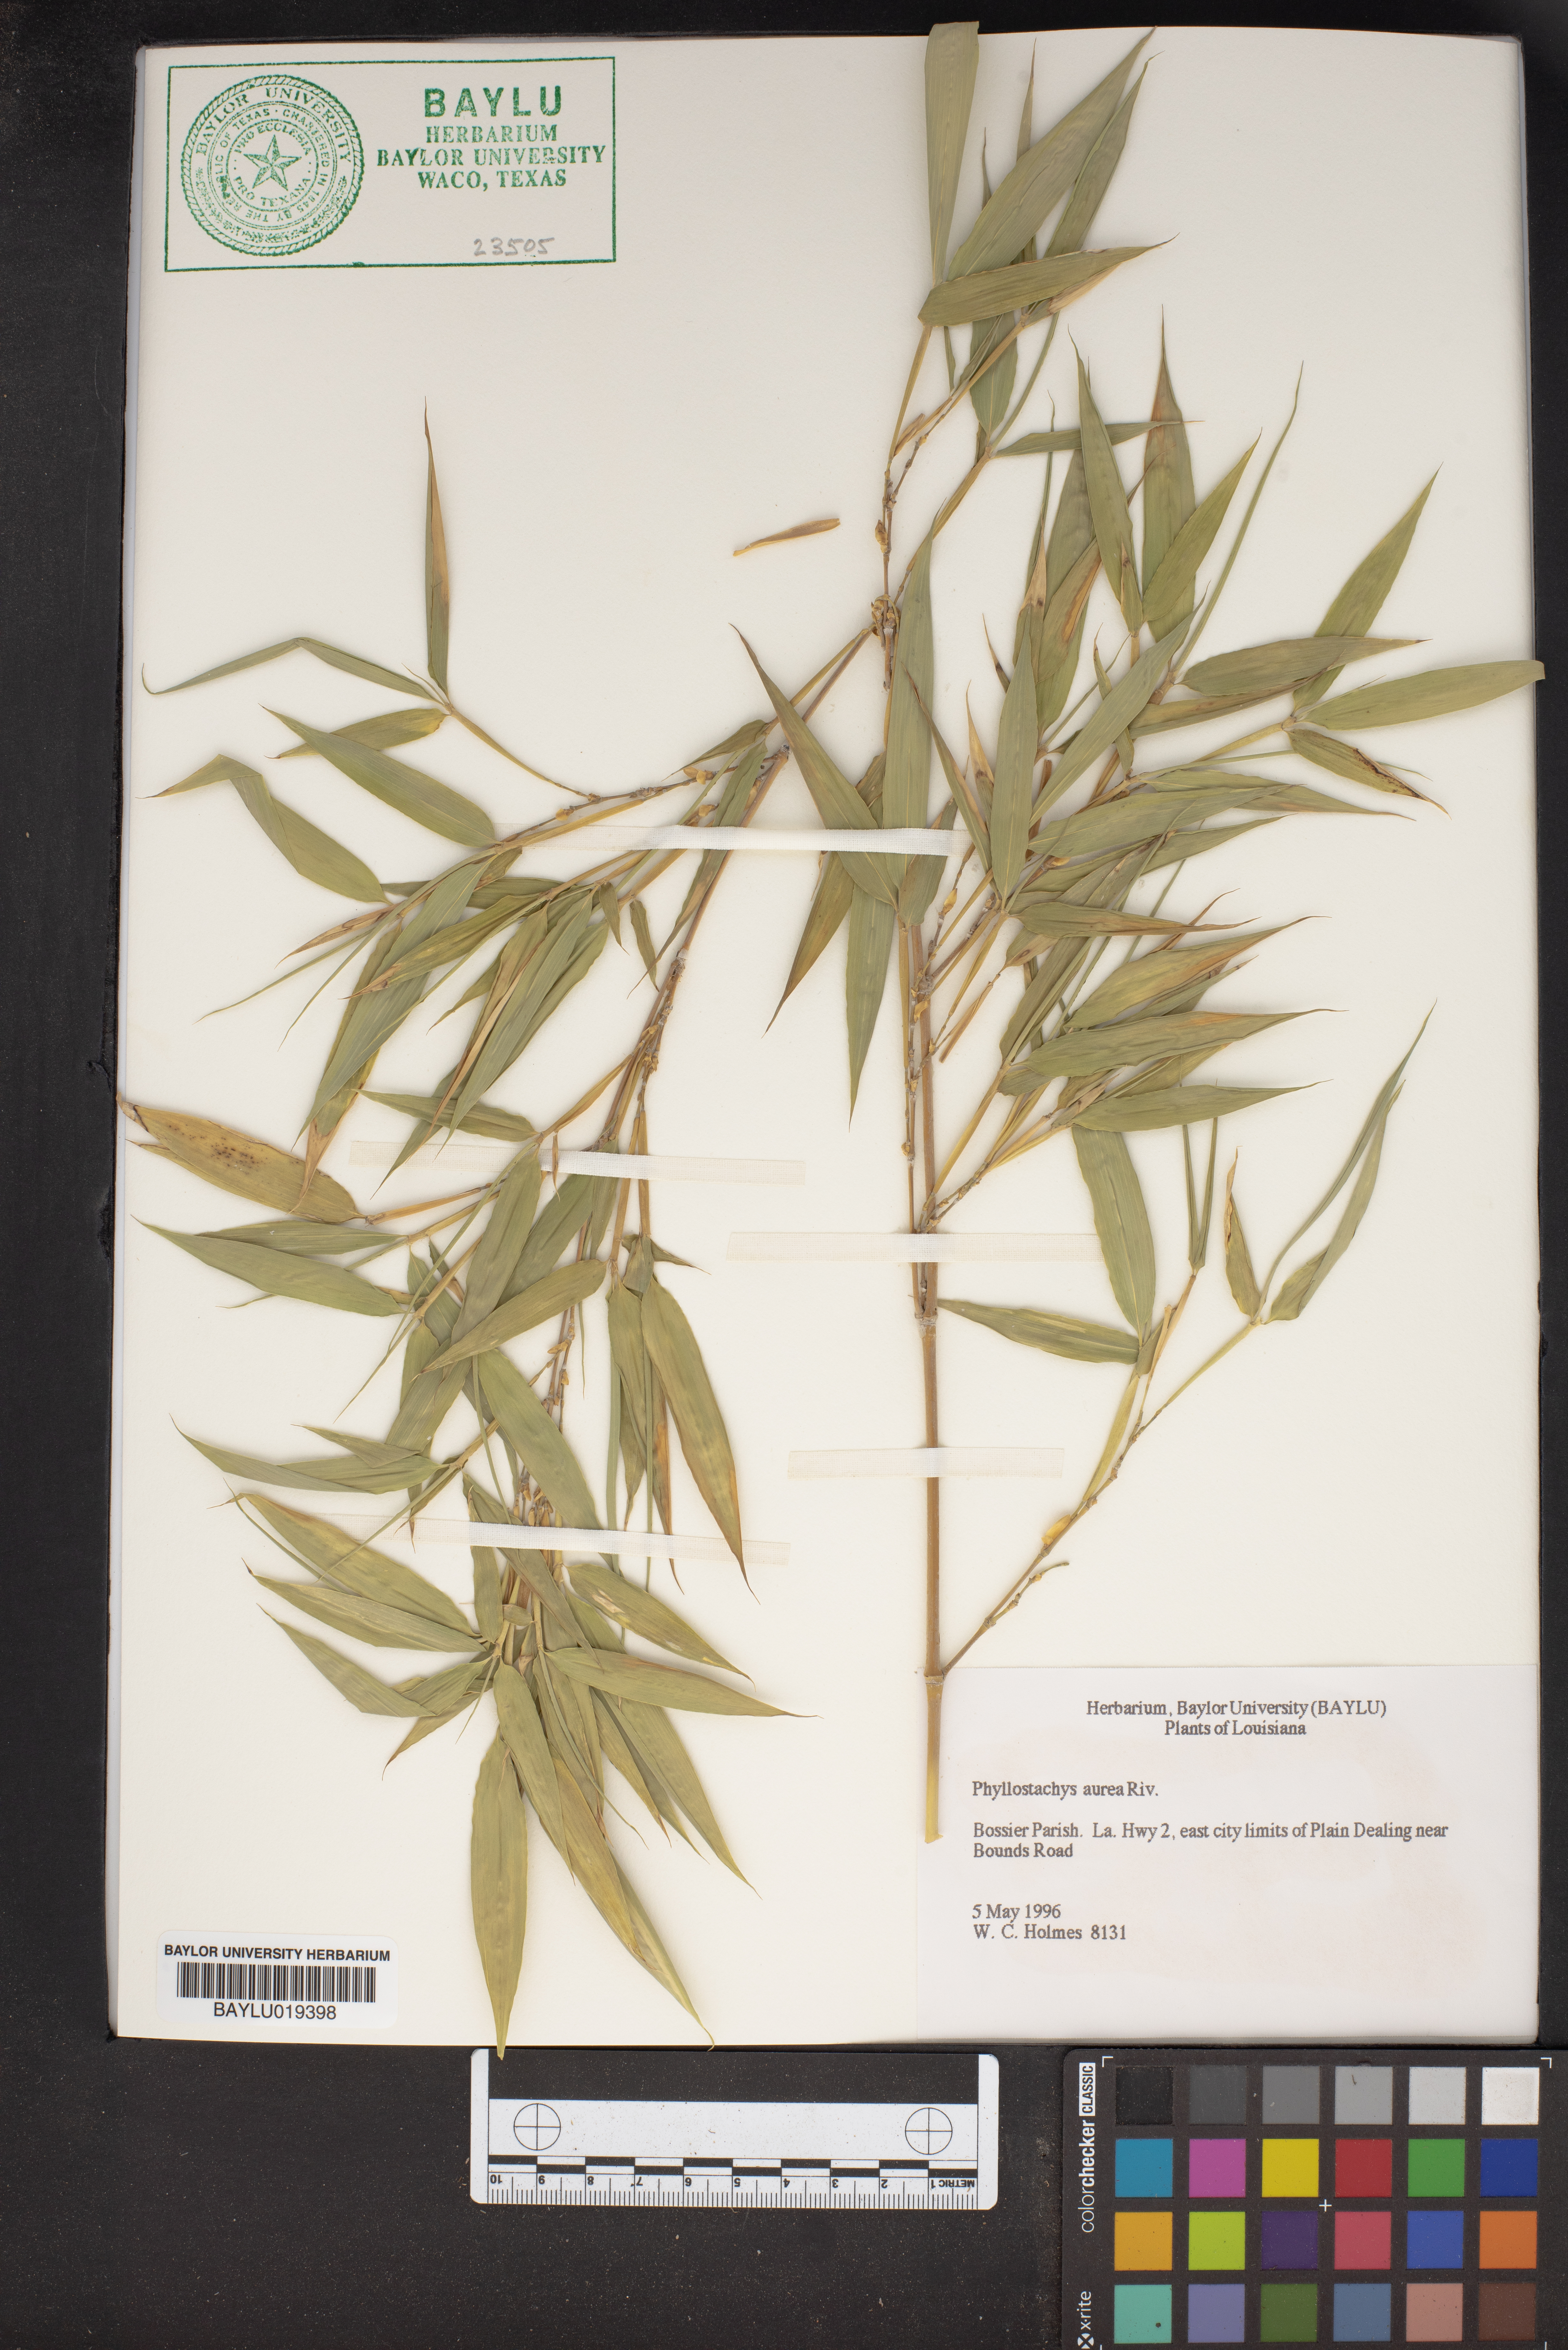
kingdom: Plantae
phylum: Tracheophyta
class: Liliopsida
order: Poales
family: Poaceae
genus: Phyllostachys
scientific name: Phyllostachys aurea
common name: Golden bamboo
